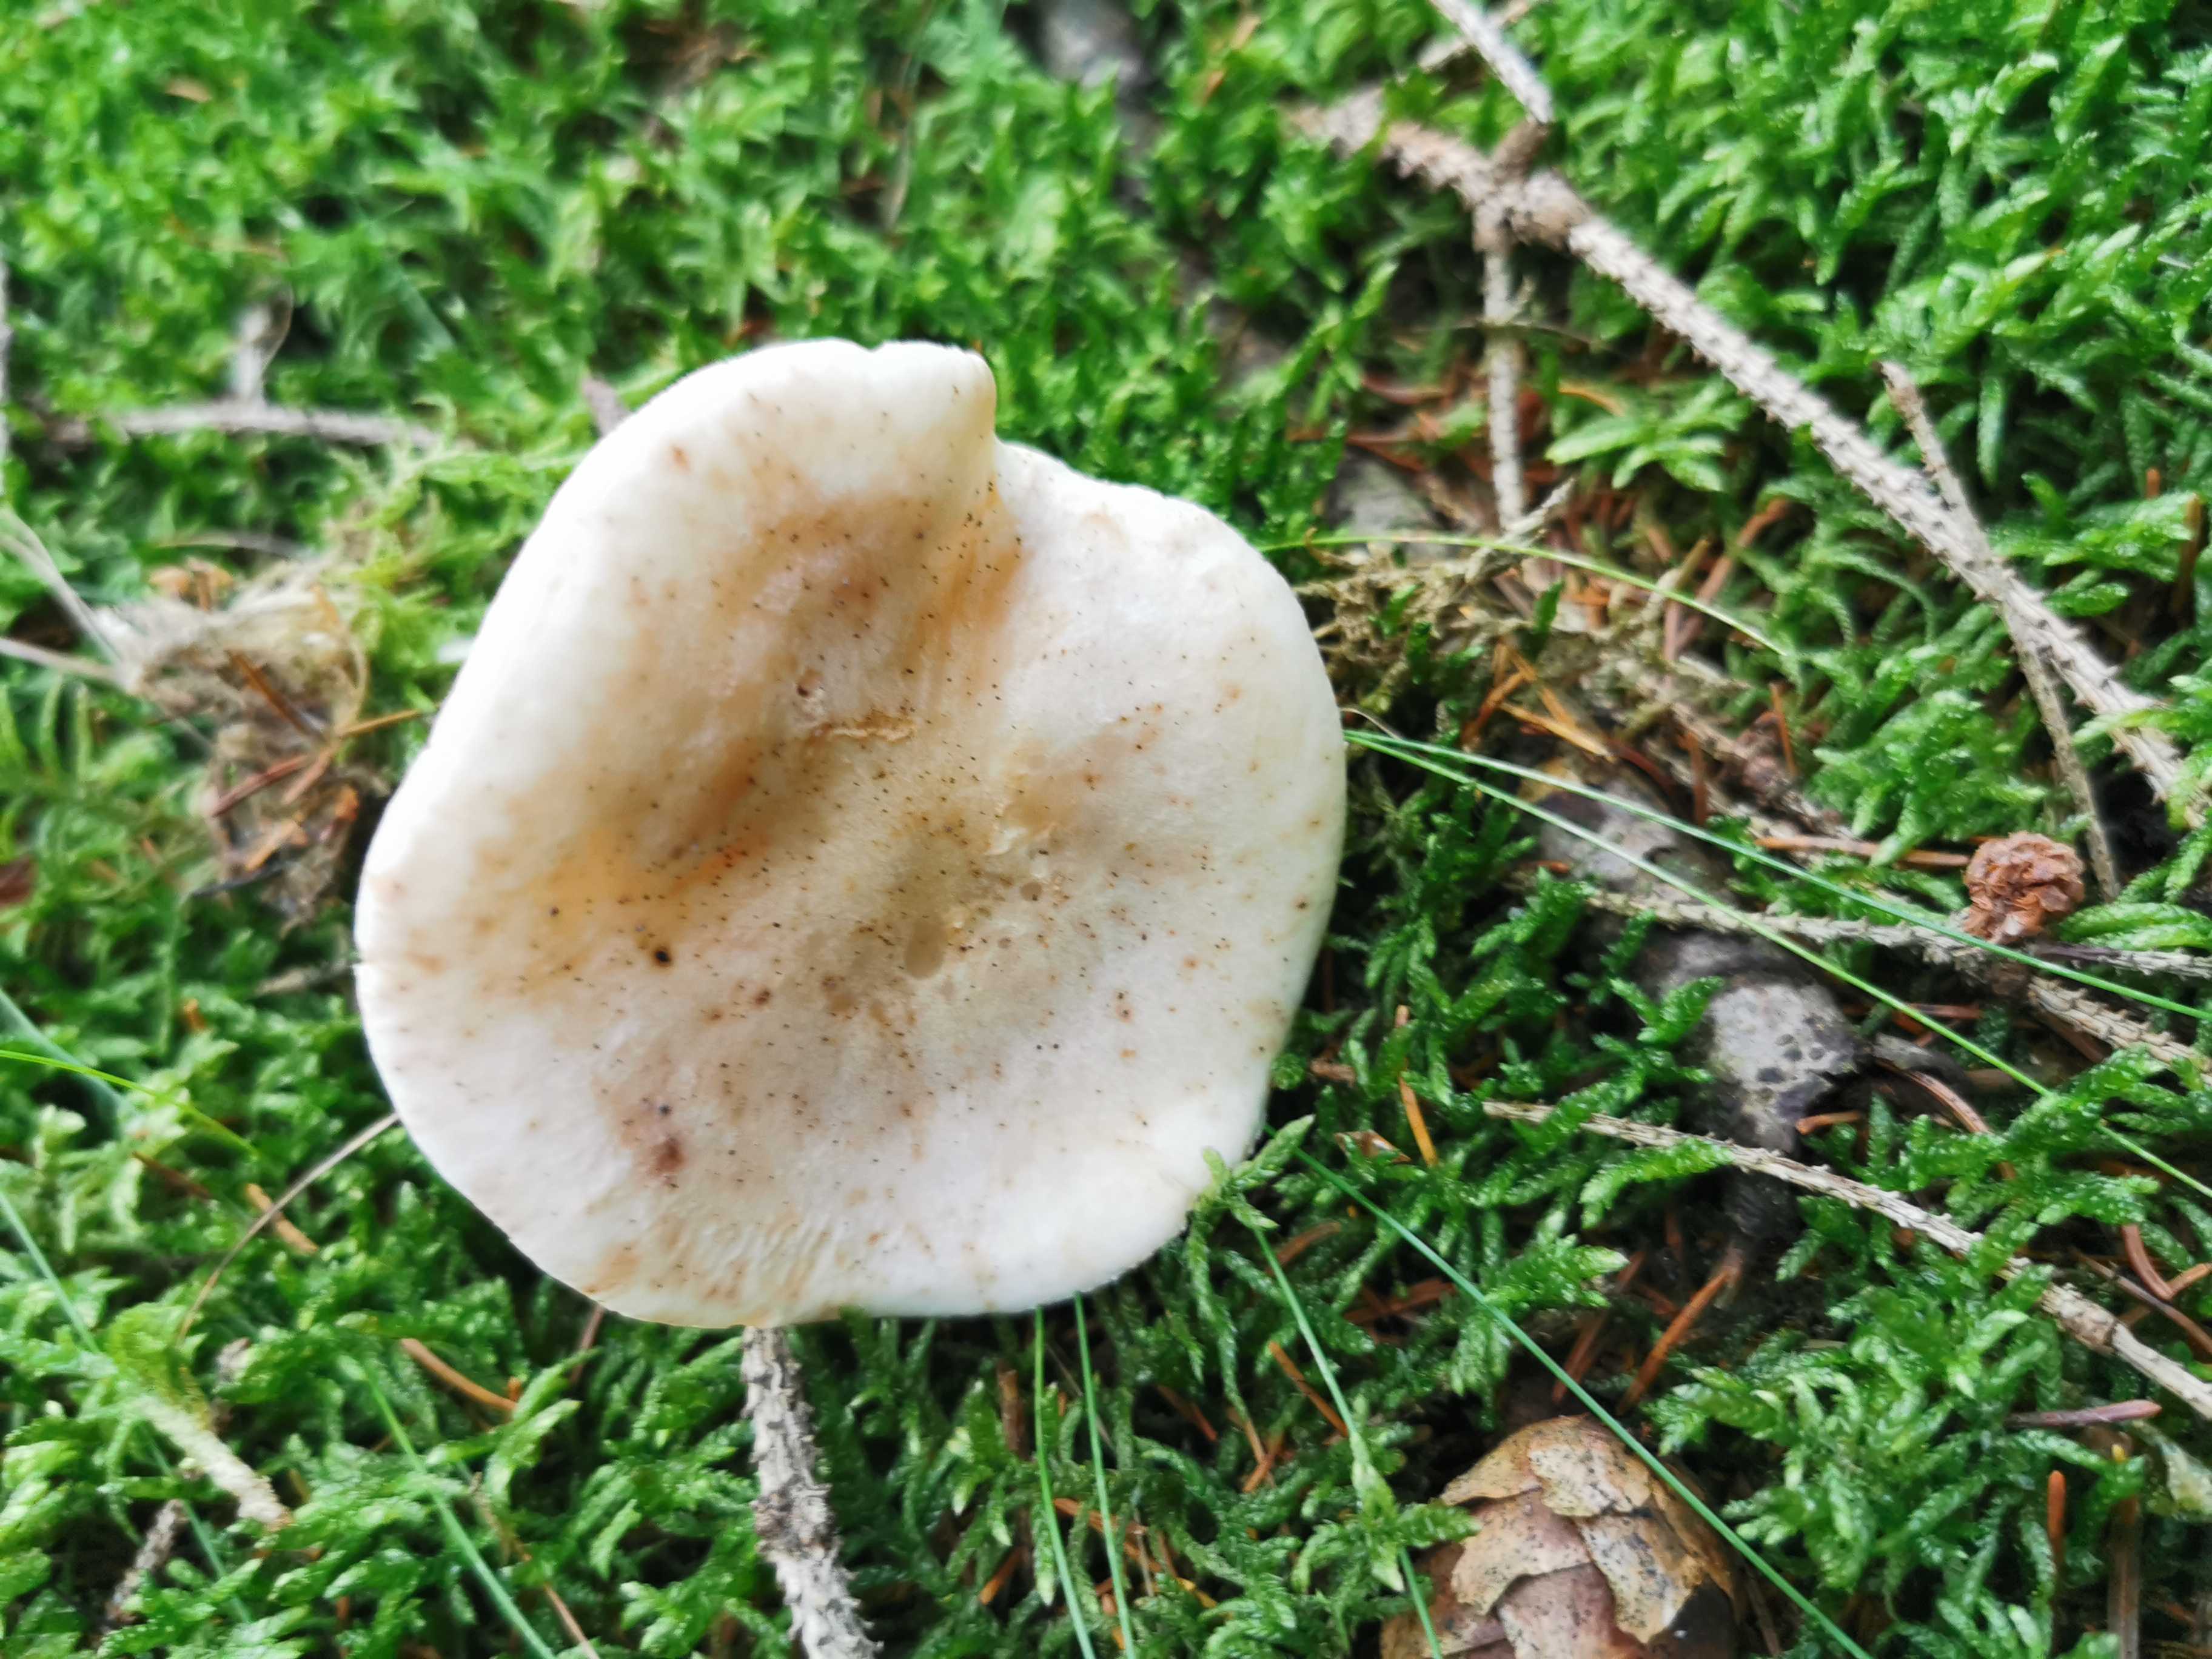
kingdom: Fungi
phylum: Basidiomycota
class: Agaricomycetes
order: Agaricales
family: Omphalotaceae
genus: Rhodocollybia
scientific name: Rhodocollybia maculata
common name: plettet fladhat
